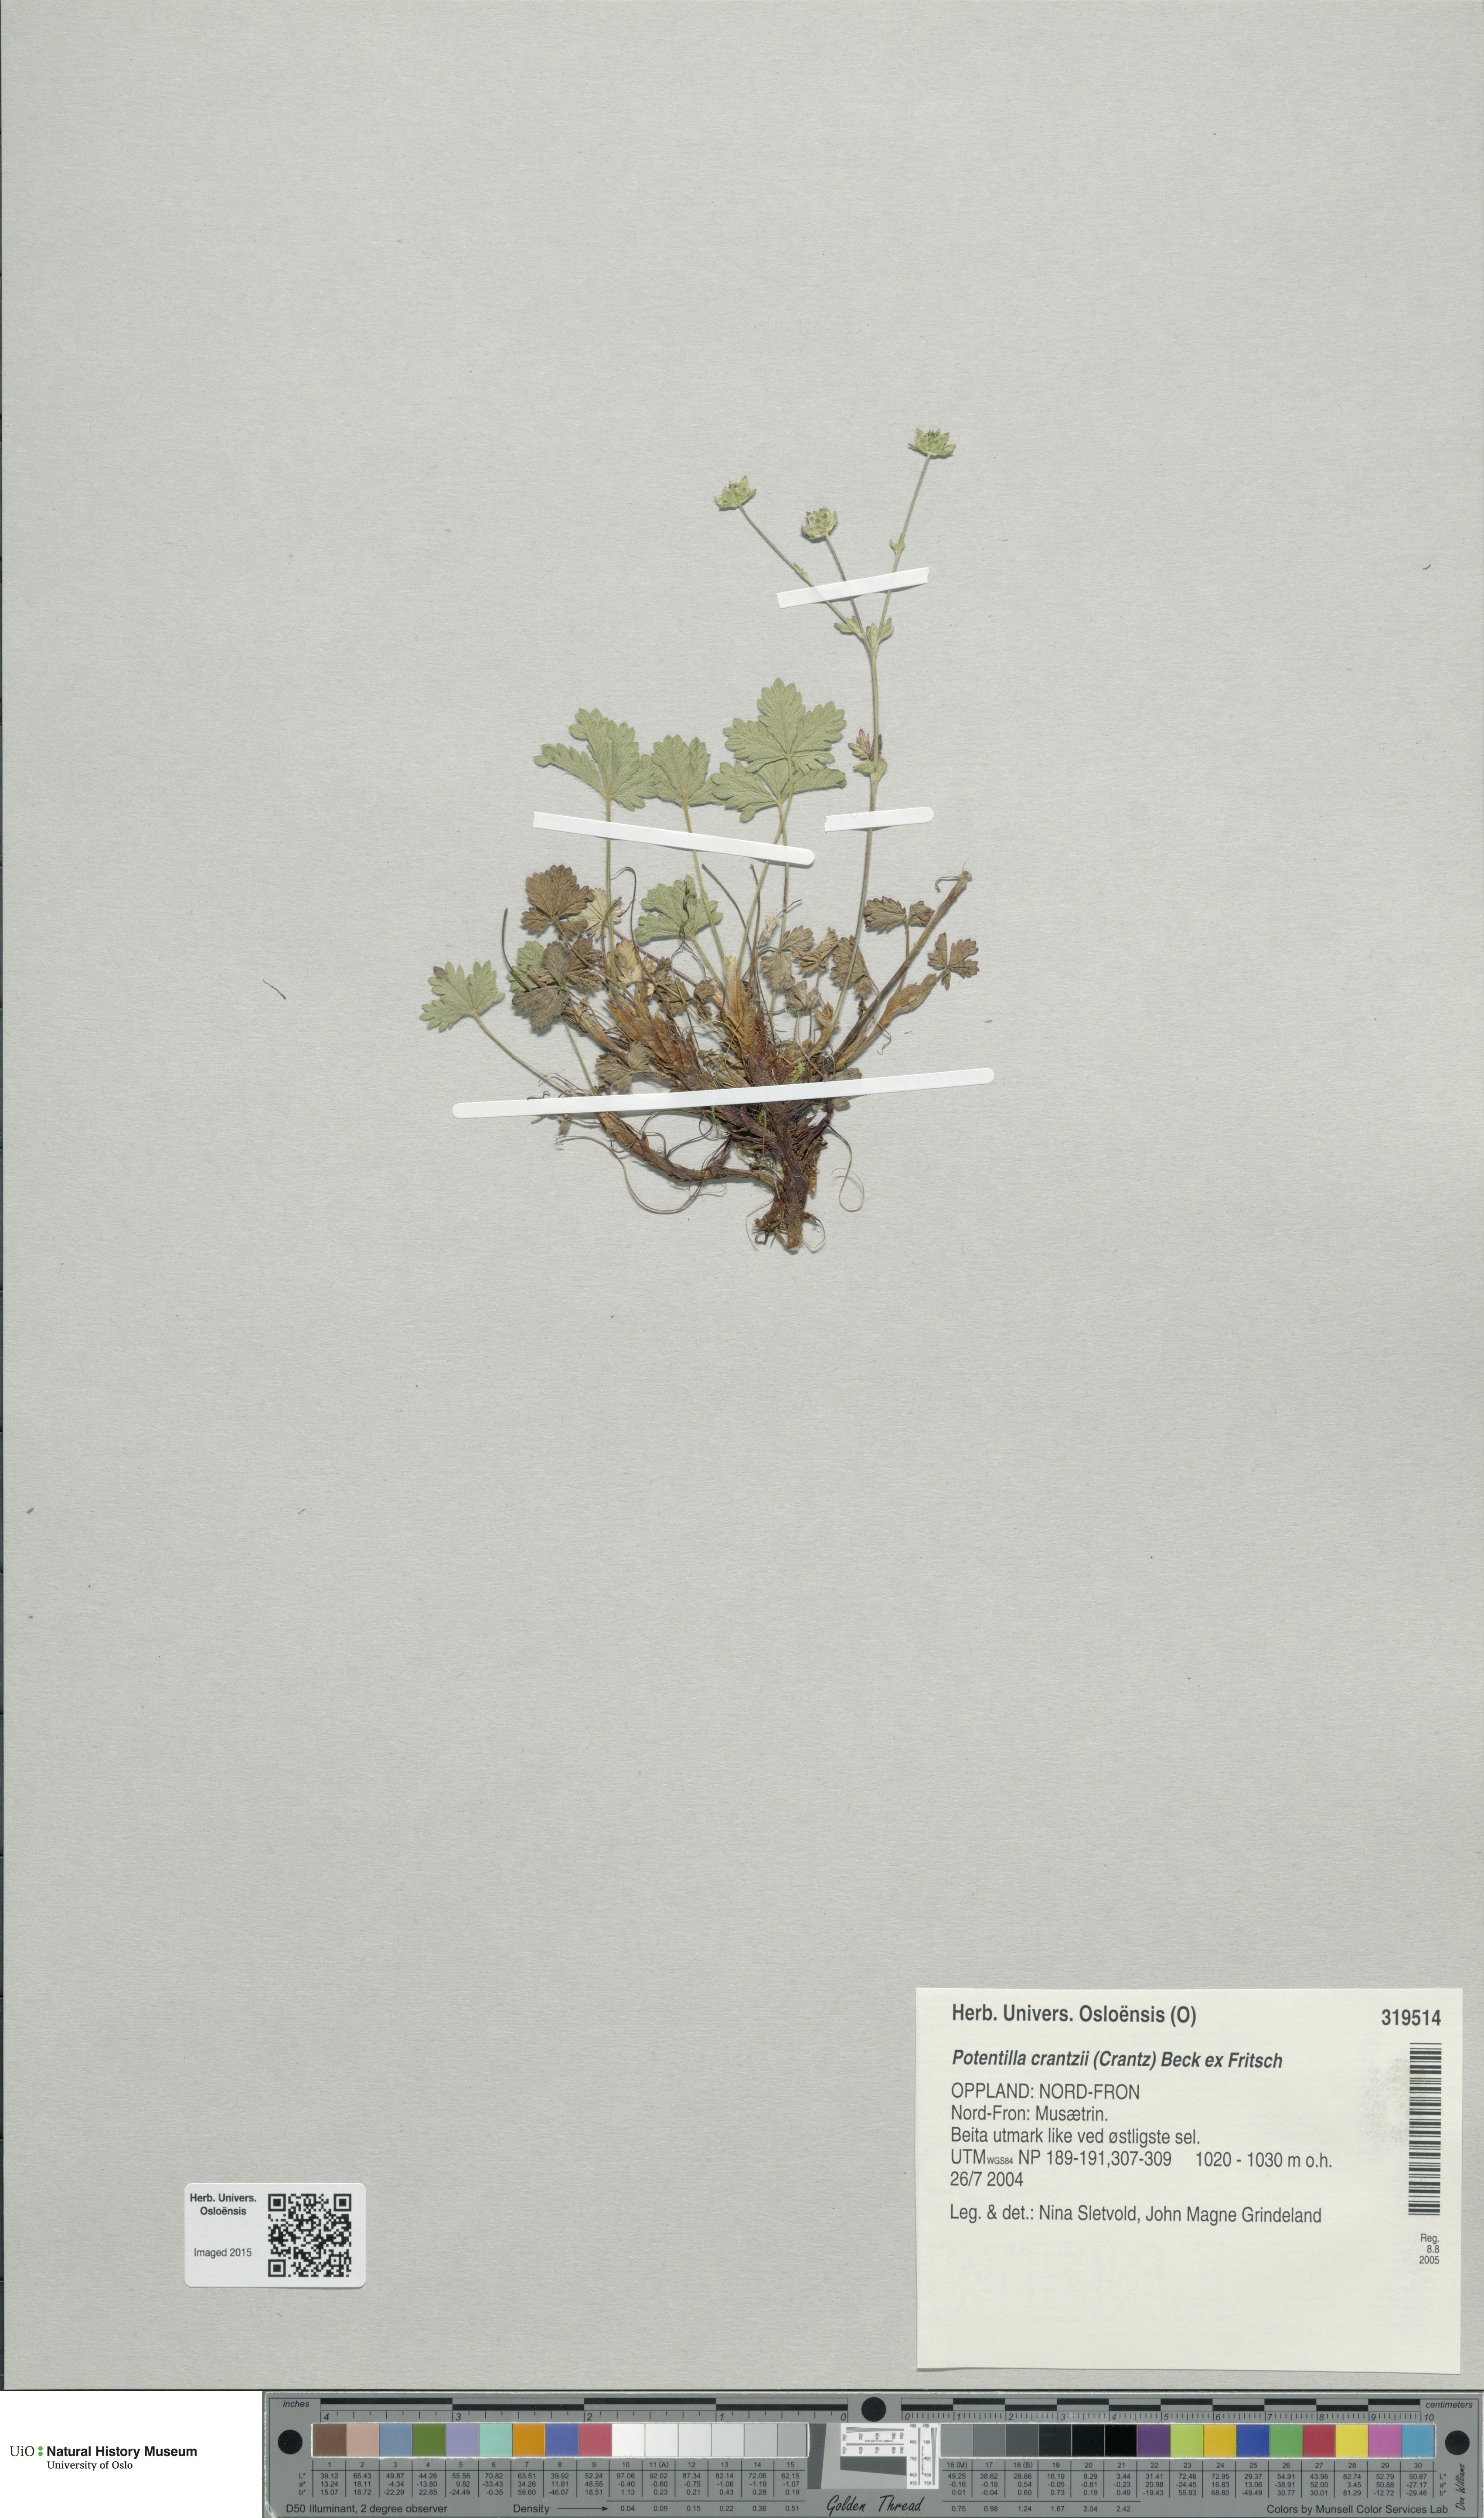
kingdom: Plantae
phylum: Tracheophyta
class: Magnoliopsida
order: Rosales
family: Rosaceae
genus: Potentilla
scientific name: Potentilla crantzii
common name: Alpine cinquefoil
